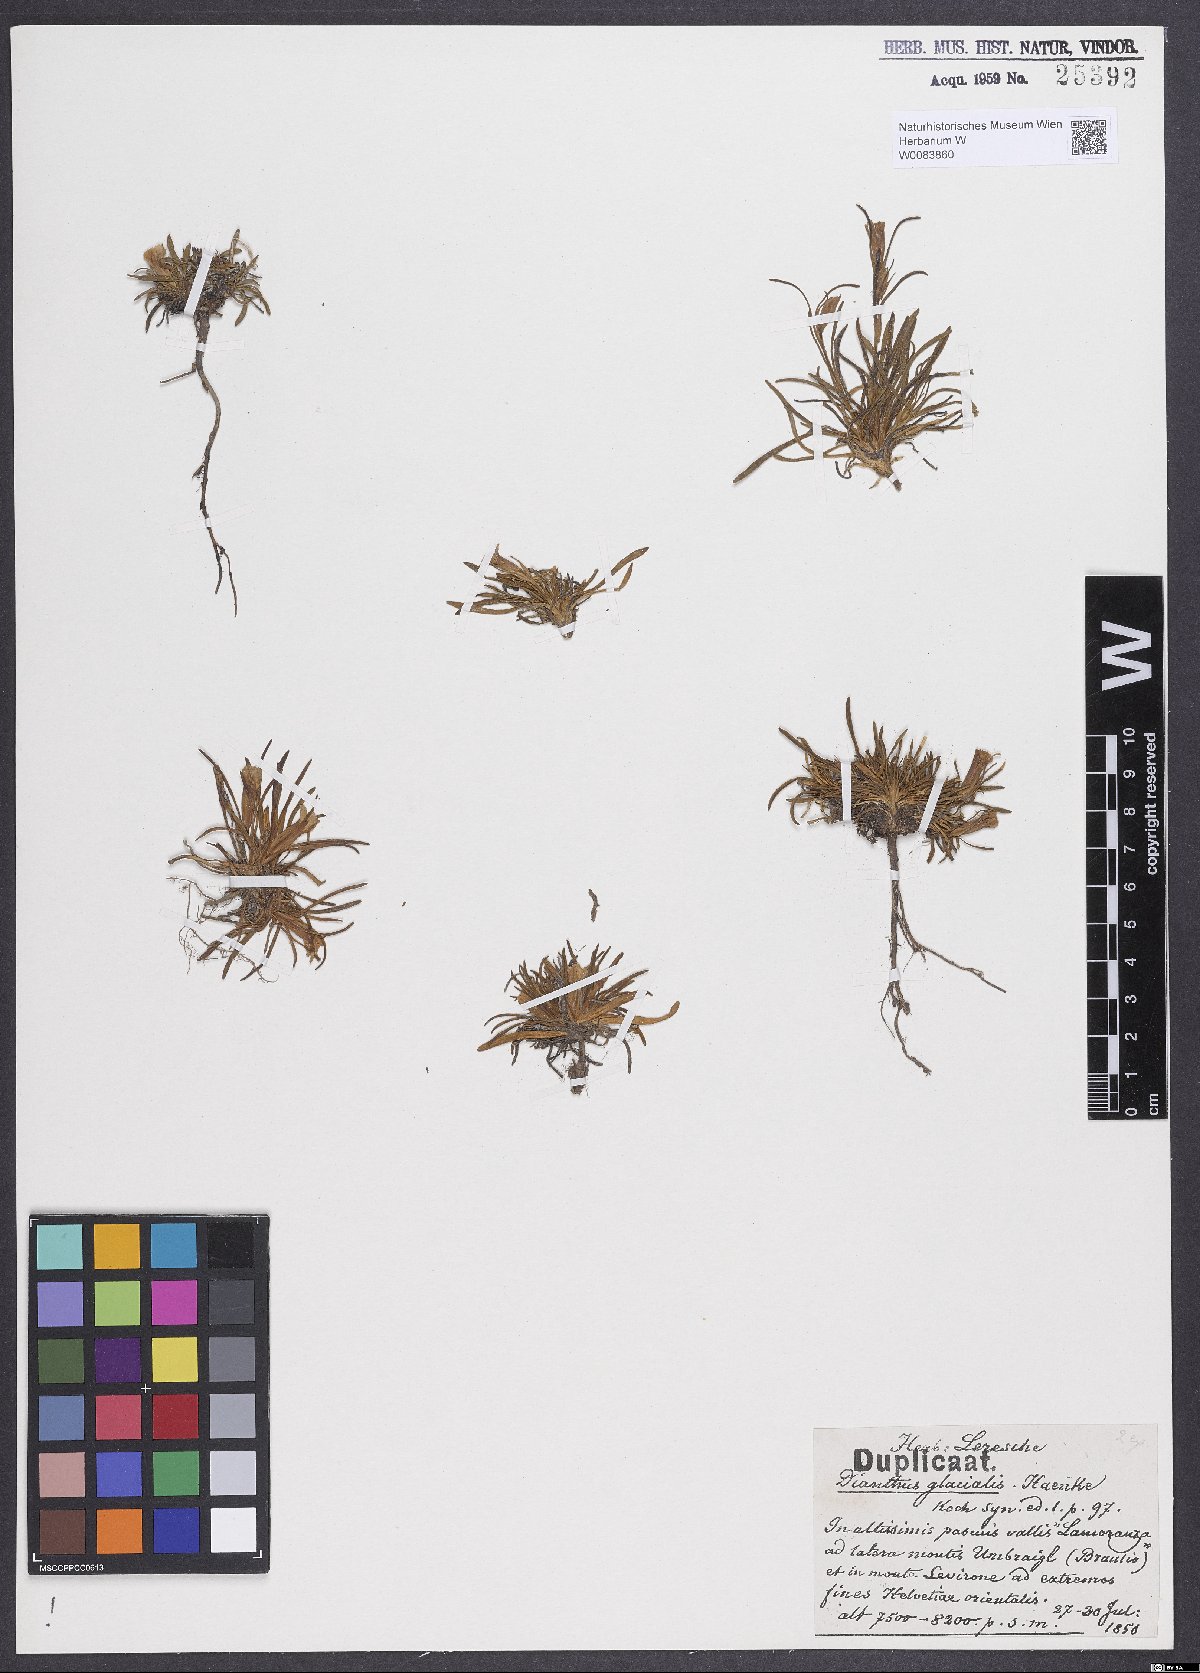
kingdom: Plantae
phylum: Tracheophyta
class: Magnoliopsida
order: Caryophyllales
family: Caryophyllaceae
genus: Dianthus
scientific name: Dianthus glacialis
